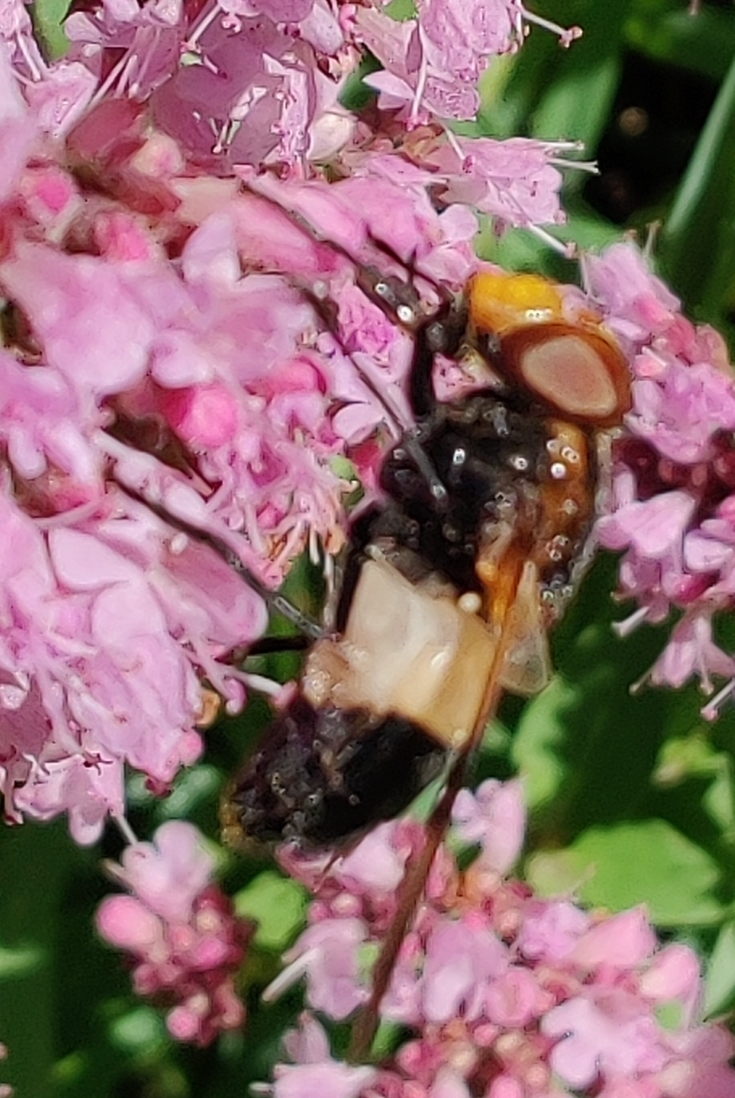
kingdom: Animalia
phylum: Arthropoda
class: Insecta
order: Diptera
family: Syrphidae
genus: Volucella
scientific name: Volucella pellucens
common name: Hvidbåndet humlesvirreflue
